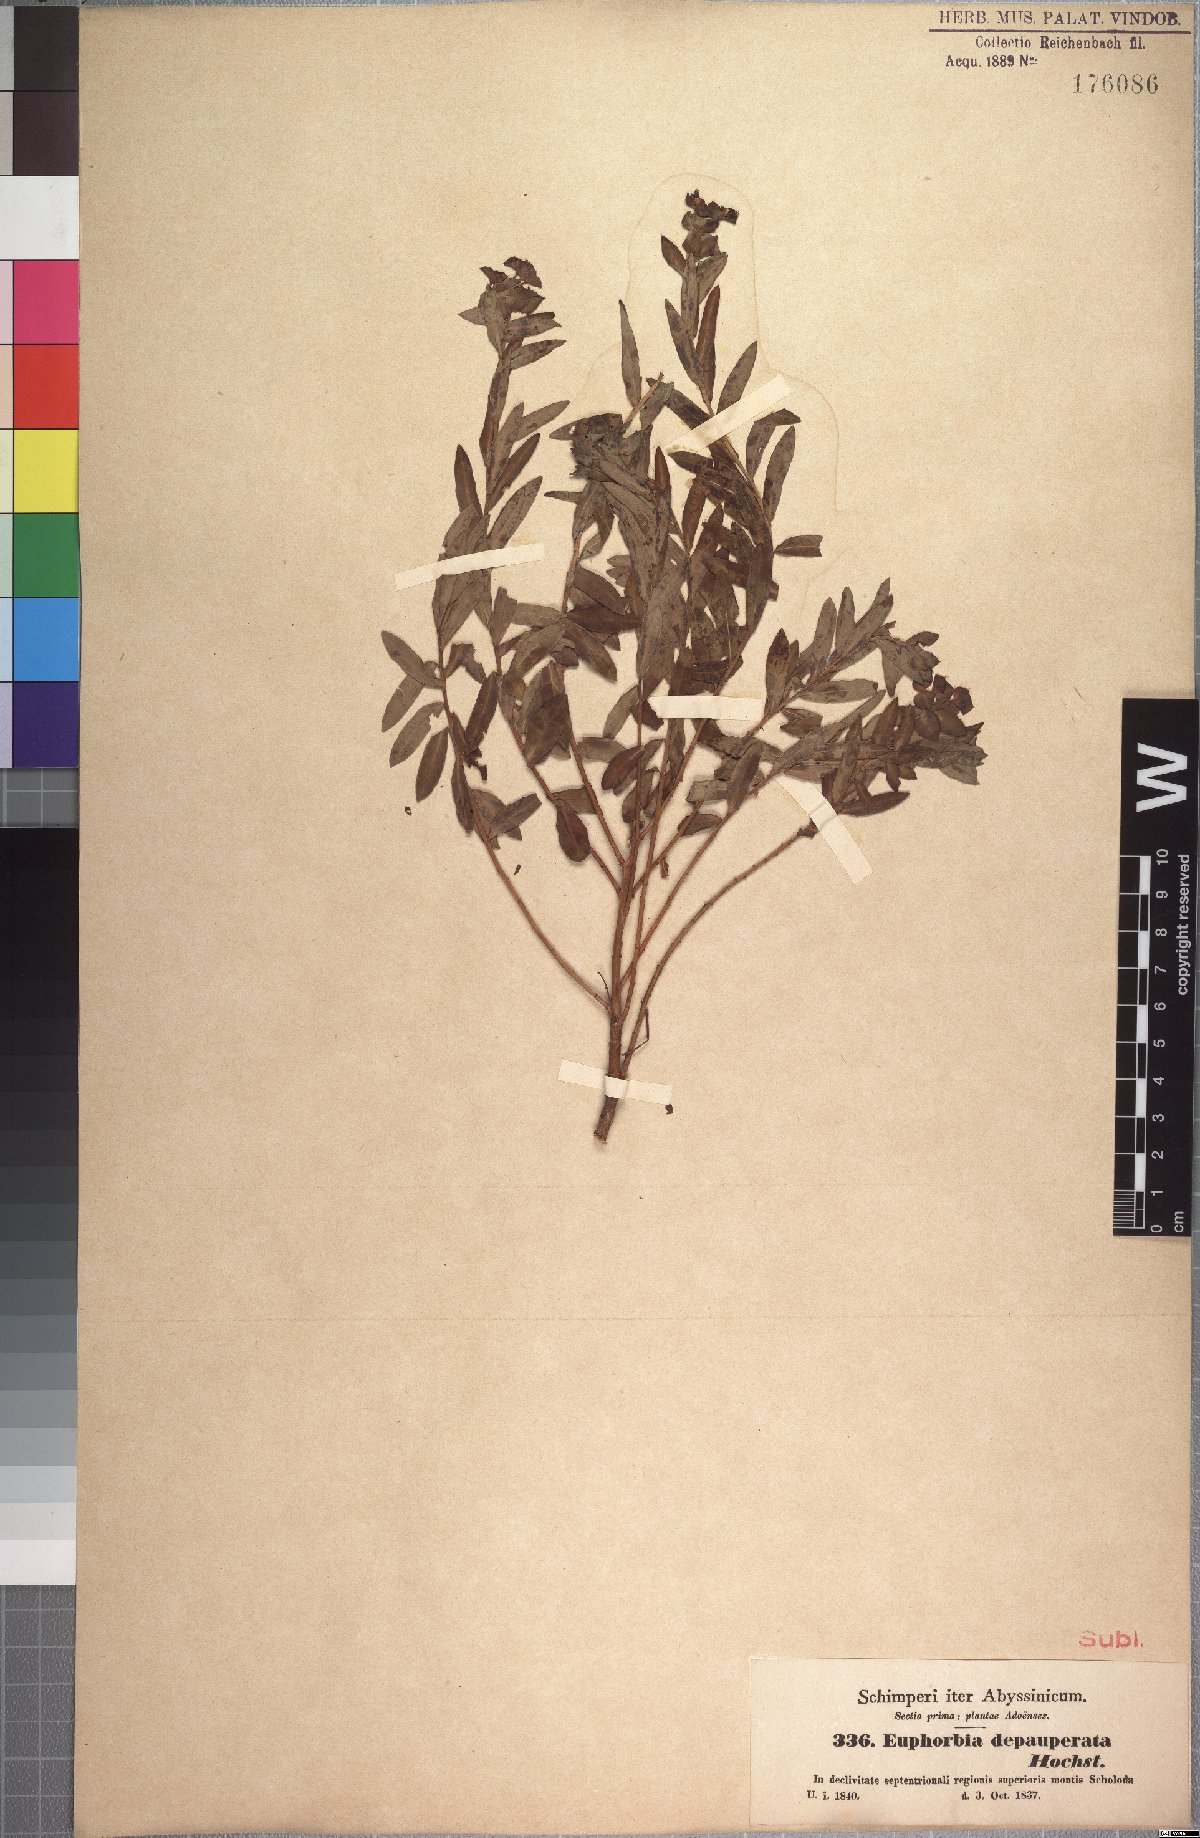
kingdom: Plantae
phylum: Tracheophyta
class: Magnoliopsida
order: Malpighiales
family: Euphorbiaceae
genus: Euphorbia
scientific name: Euphorbia depauperata
